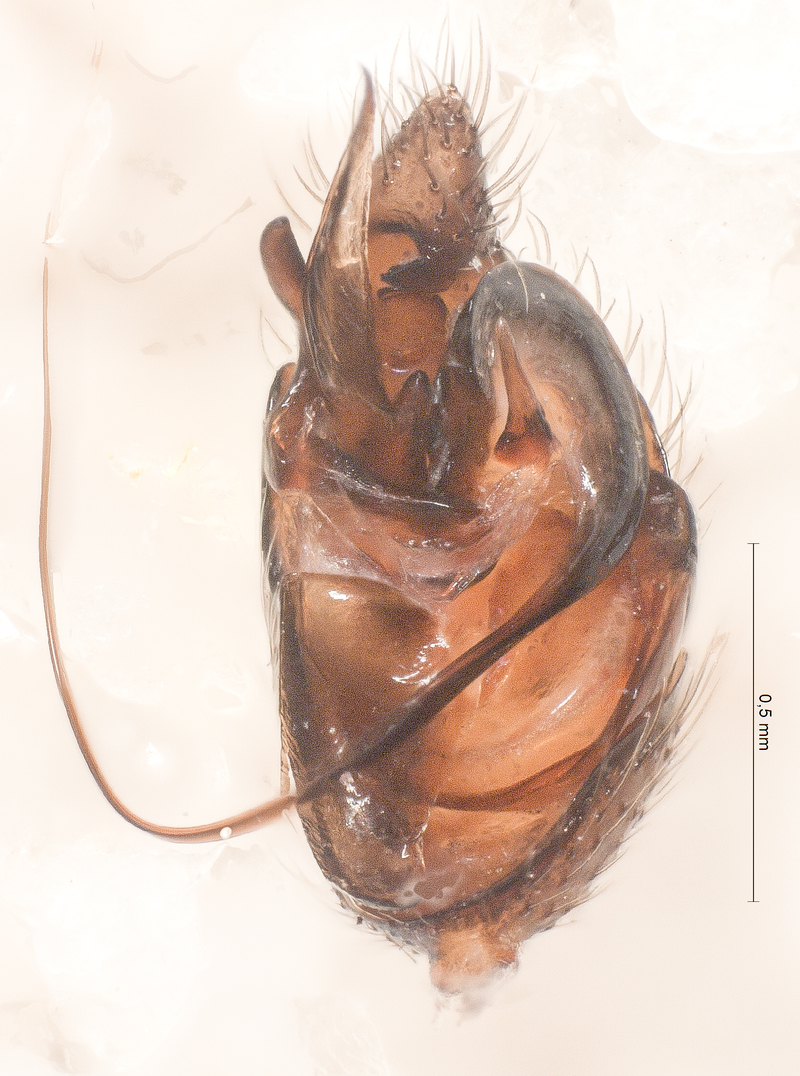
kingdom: Animalia
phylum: Arthropoda
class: Arachnida
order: Araneae
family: Theridiidae
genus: Asagena
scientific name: Asagena phalerata
